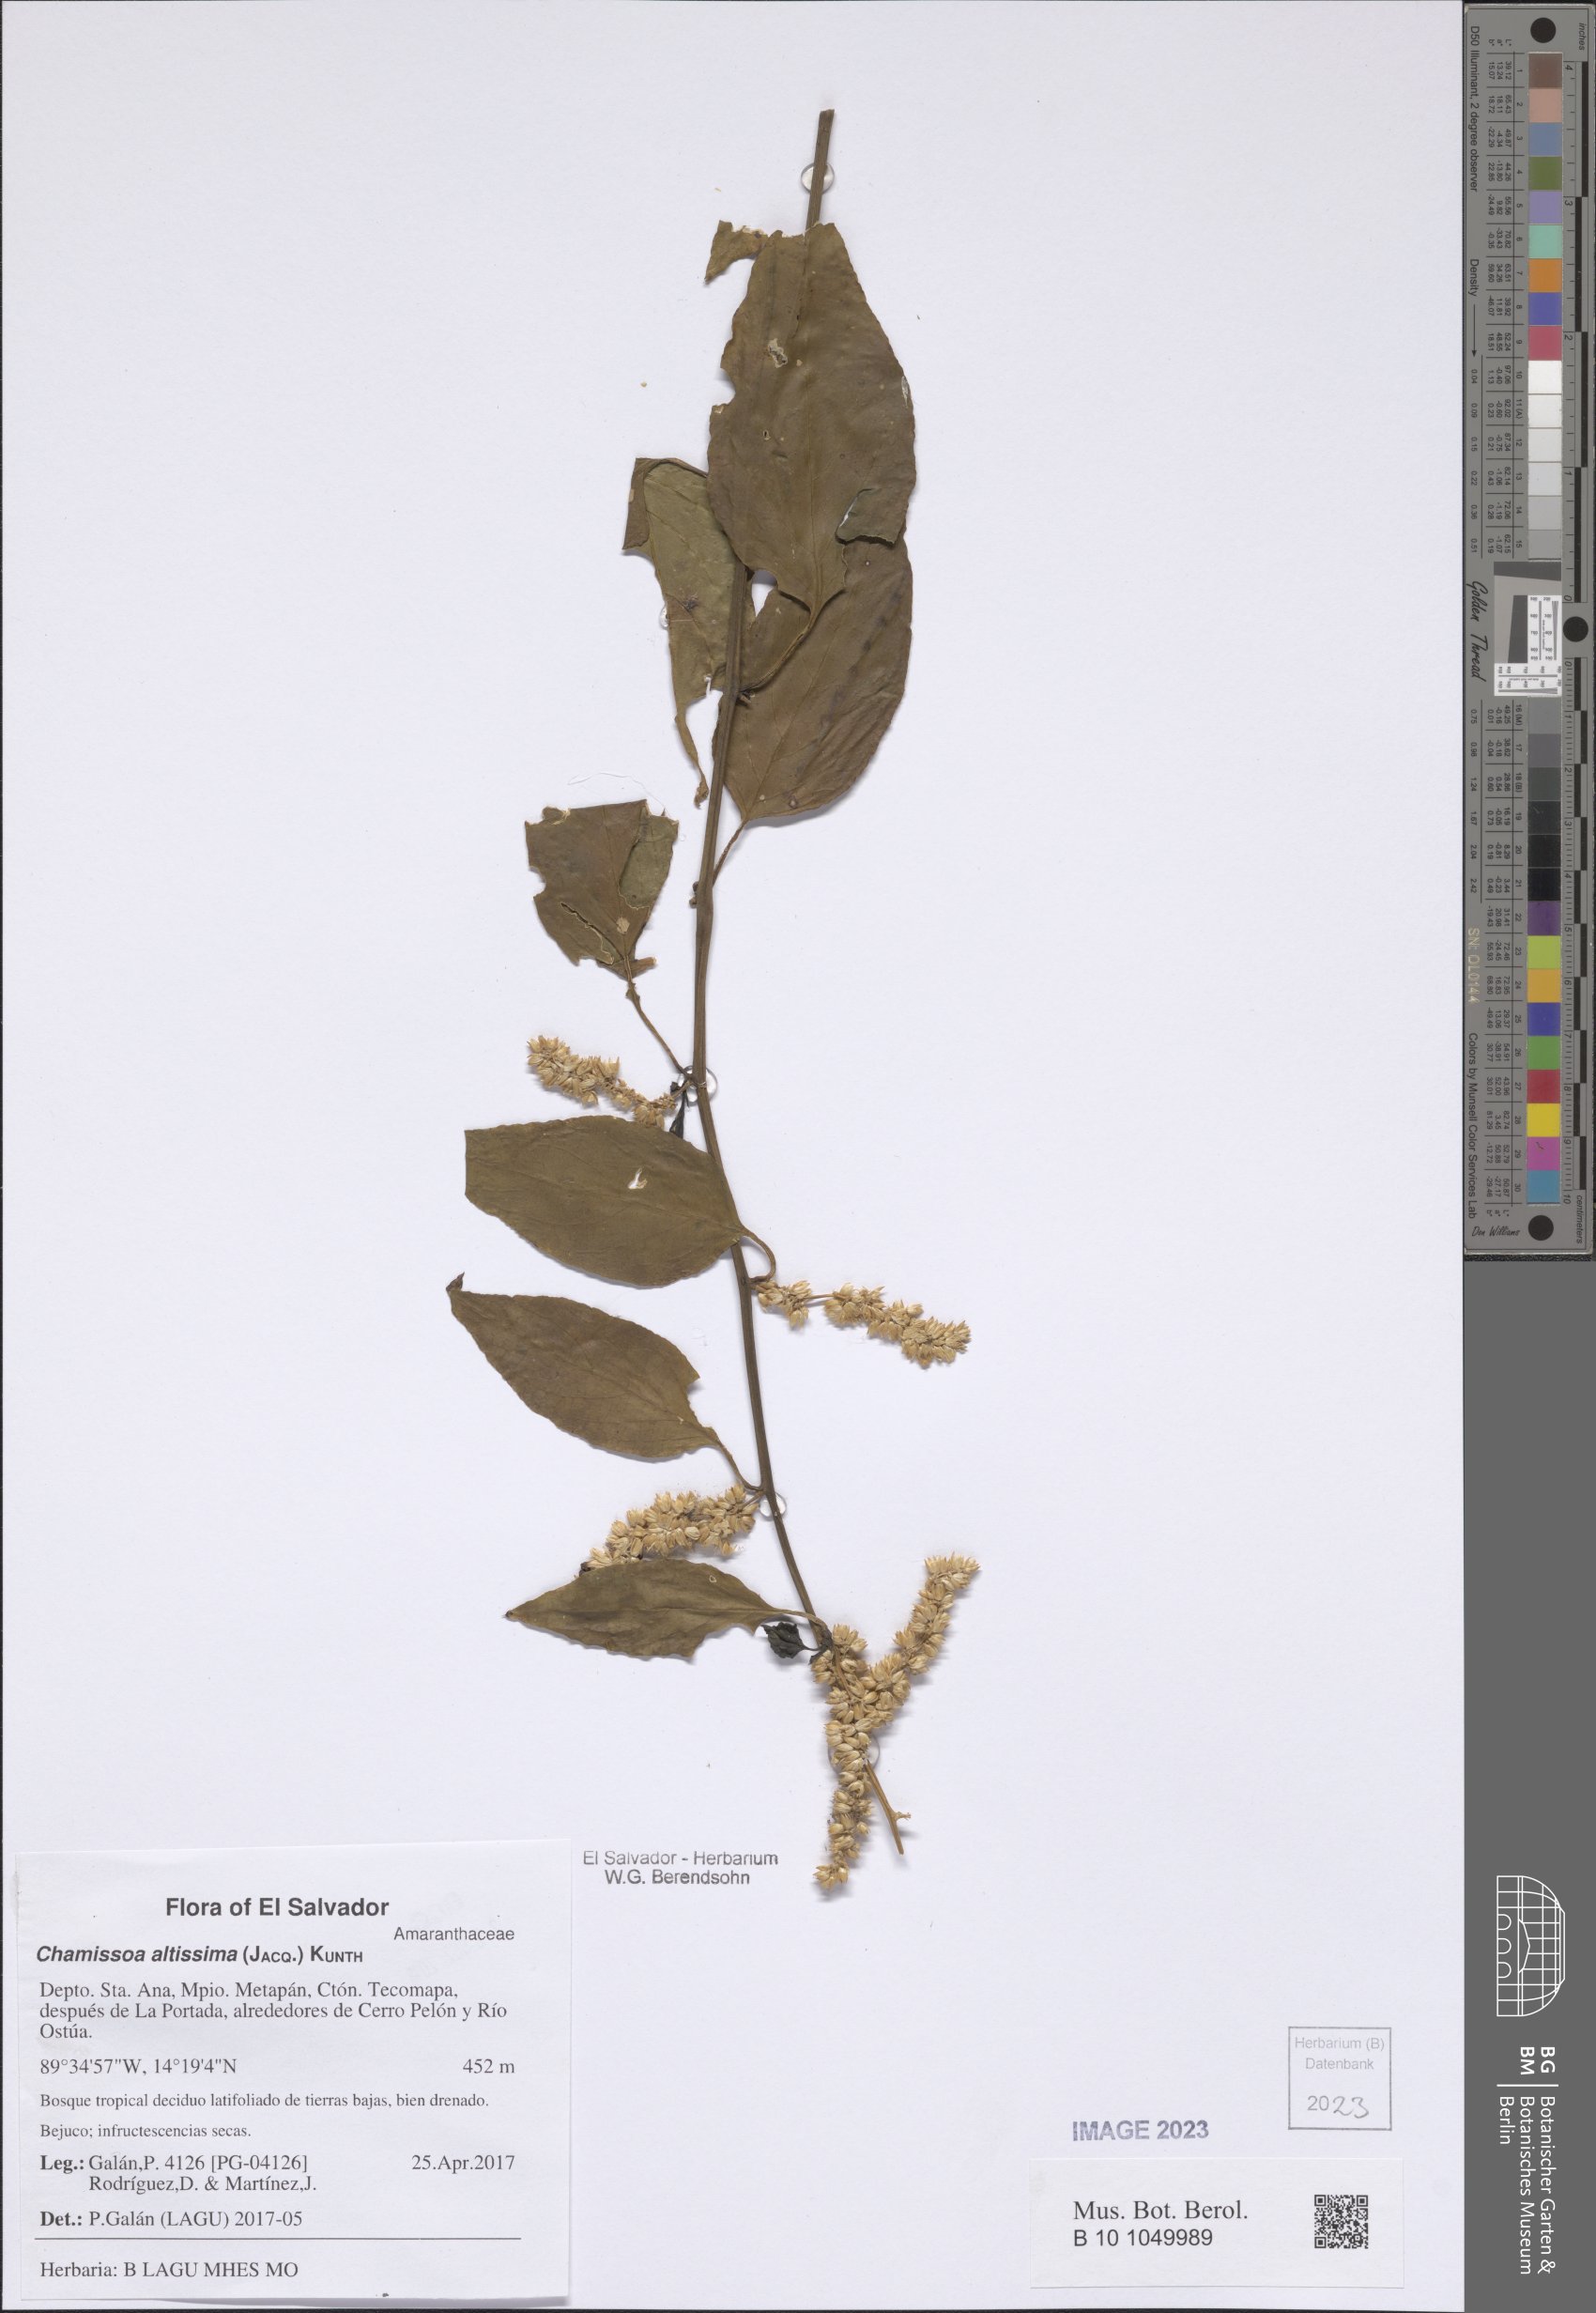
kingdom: Plantae
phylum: Tracheophyta
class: Magnoliopsida
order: Caryophyllales
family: Amaranthaceae
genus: Chamissoa
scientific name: Chamissoa altissima
